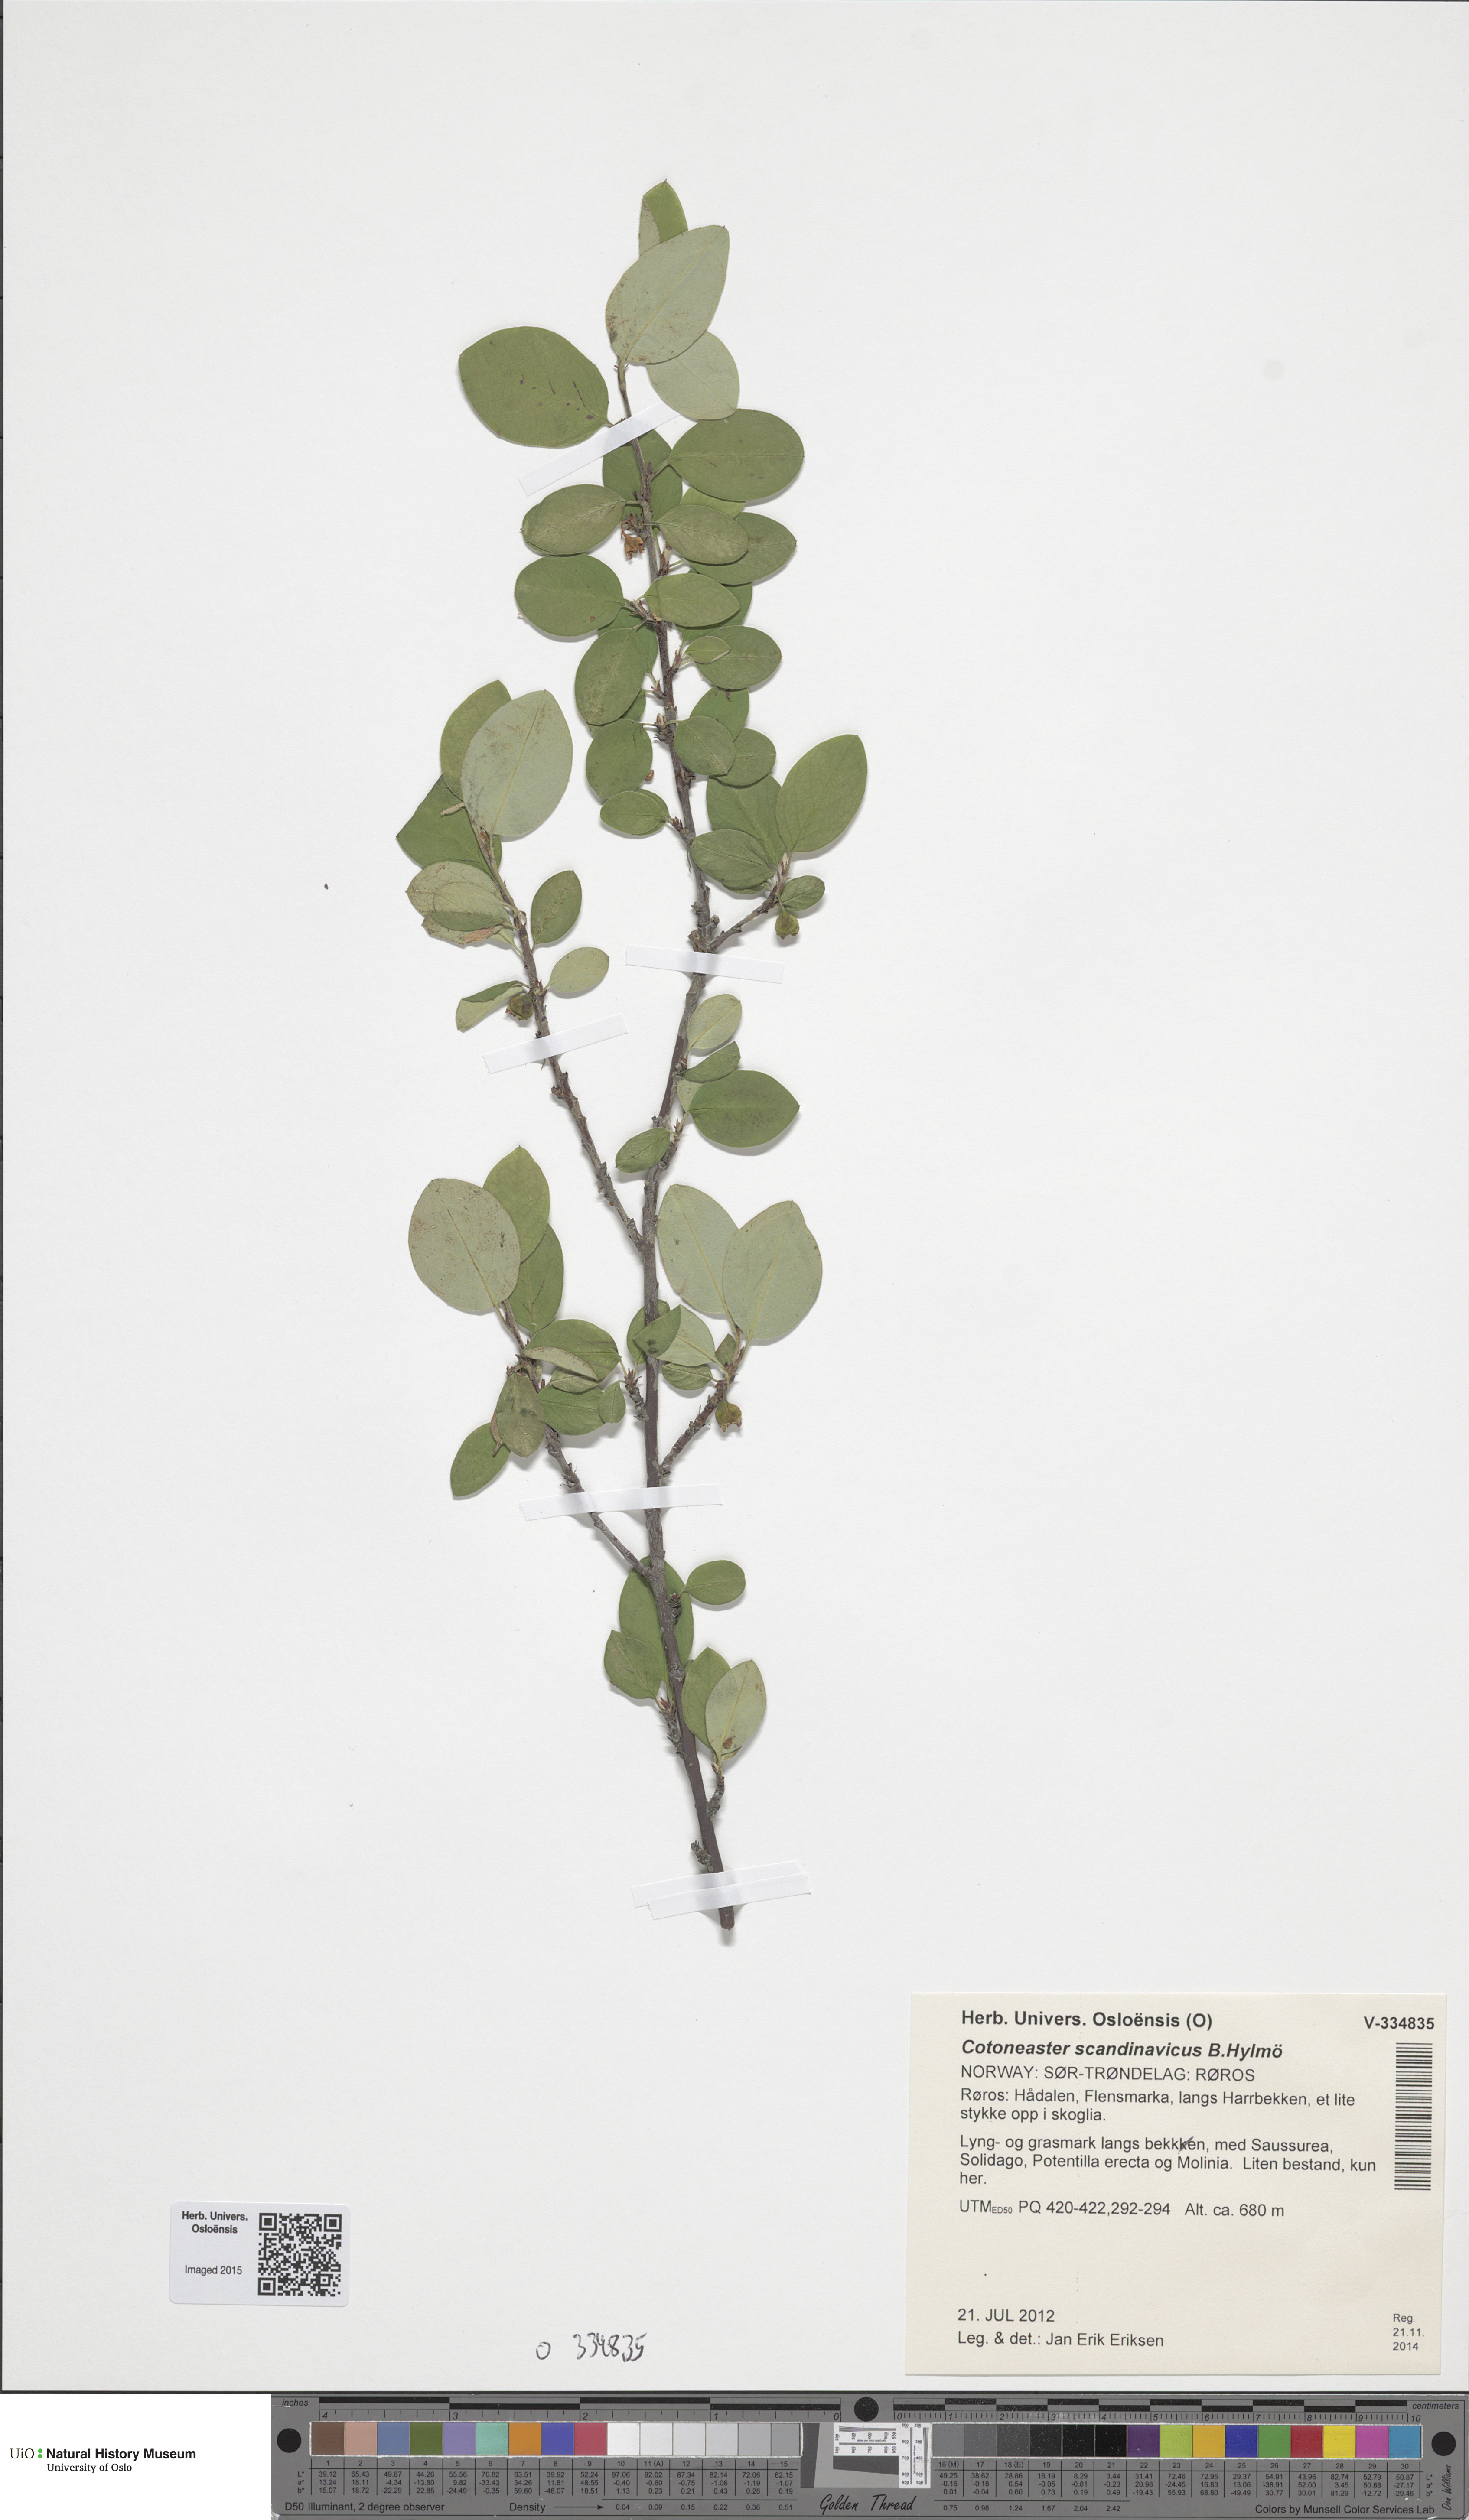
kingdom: Plantae
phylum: Tracheophyta
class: Magnoliopsida
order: Rosales
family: Rosaceae
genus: Cotoneaster
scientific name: Cotoneaster integerrimus
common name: Wild cotoneaster
